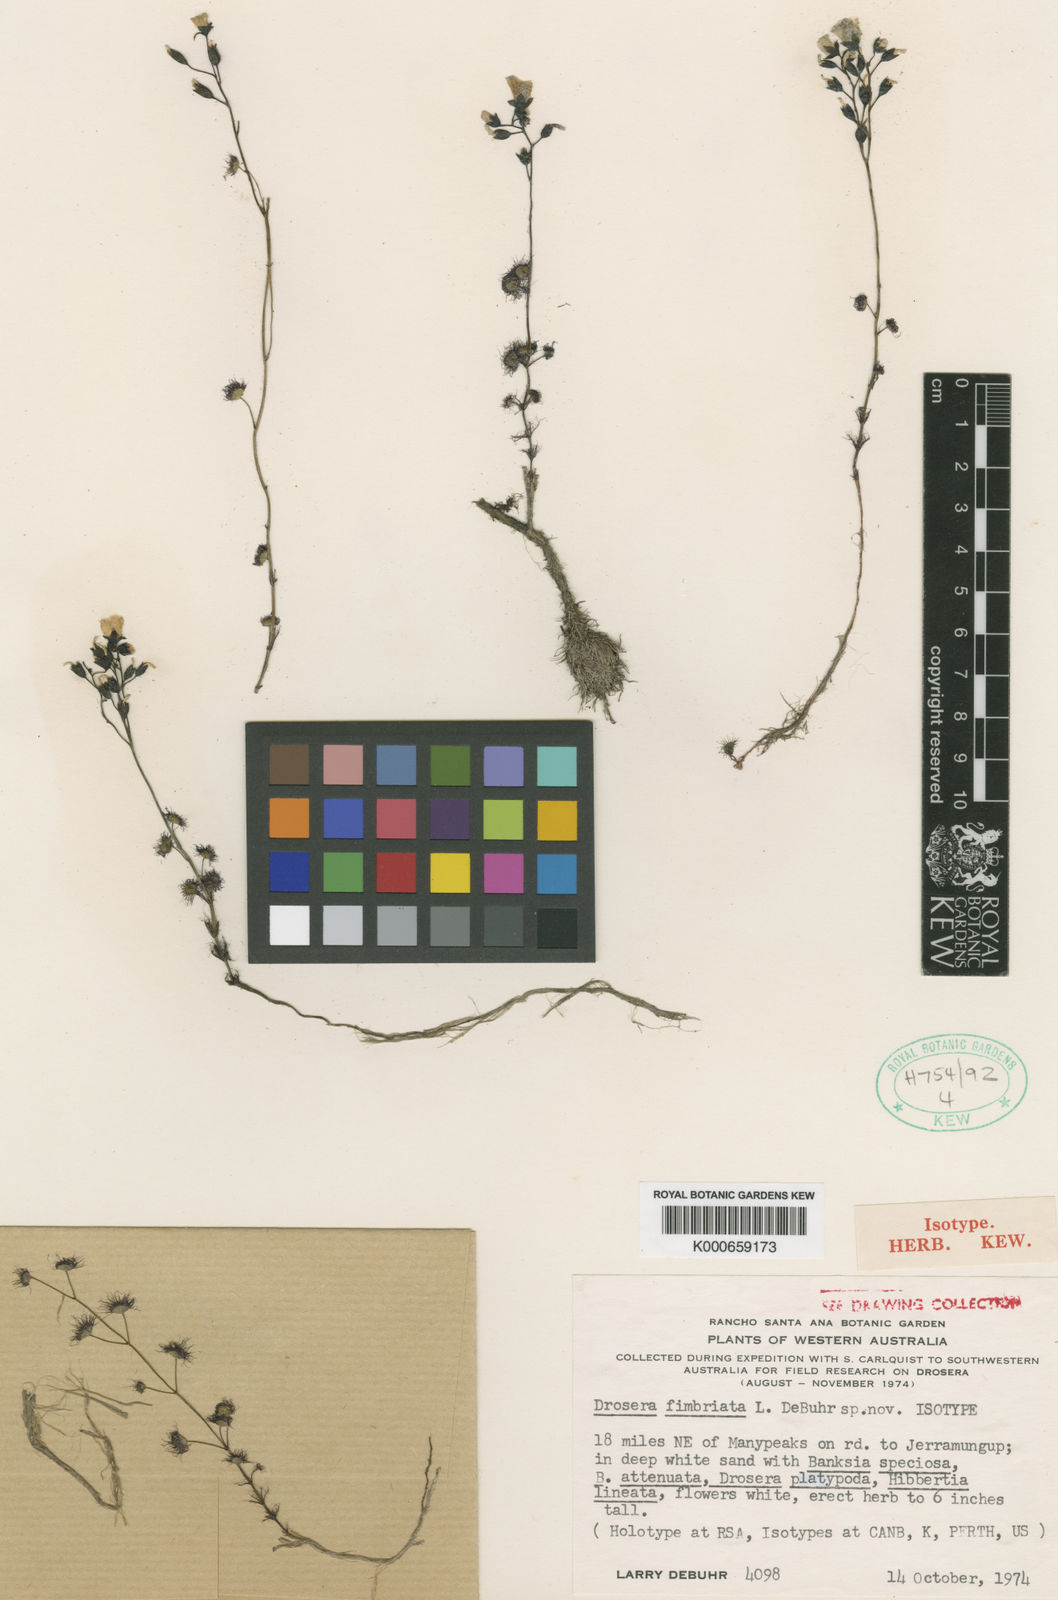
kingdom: Plantae
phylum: Tracheophyta
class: Magnoliopsida
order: Caryophyllales
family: Droseraceae
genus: Drosera
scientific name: Drosera fimbriata
